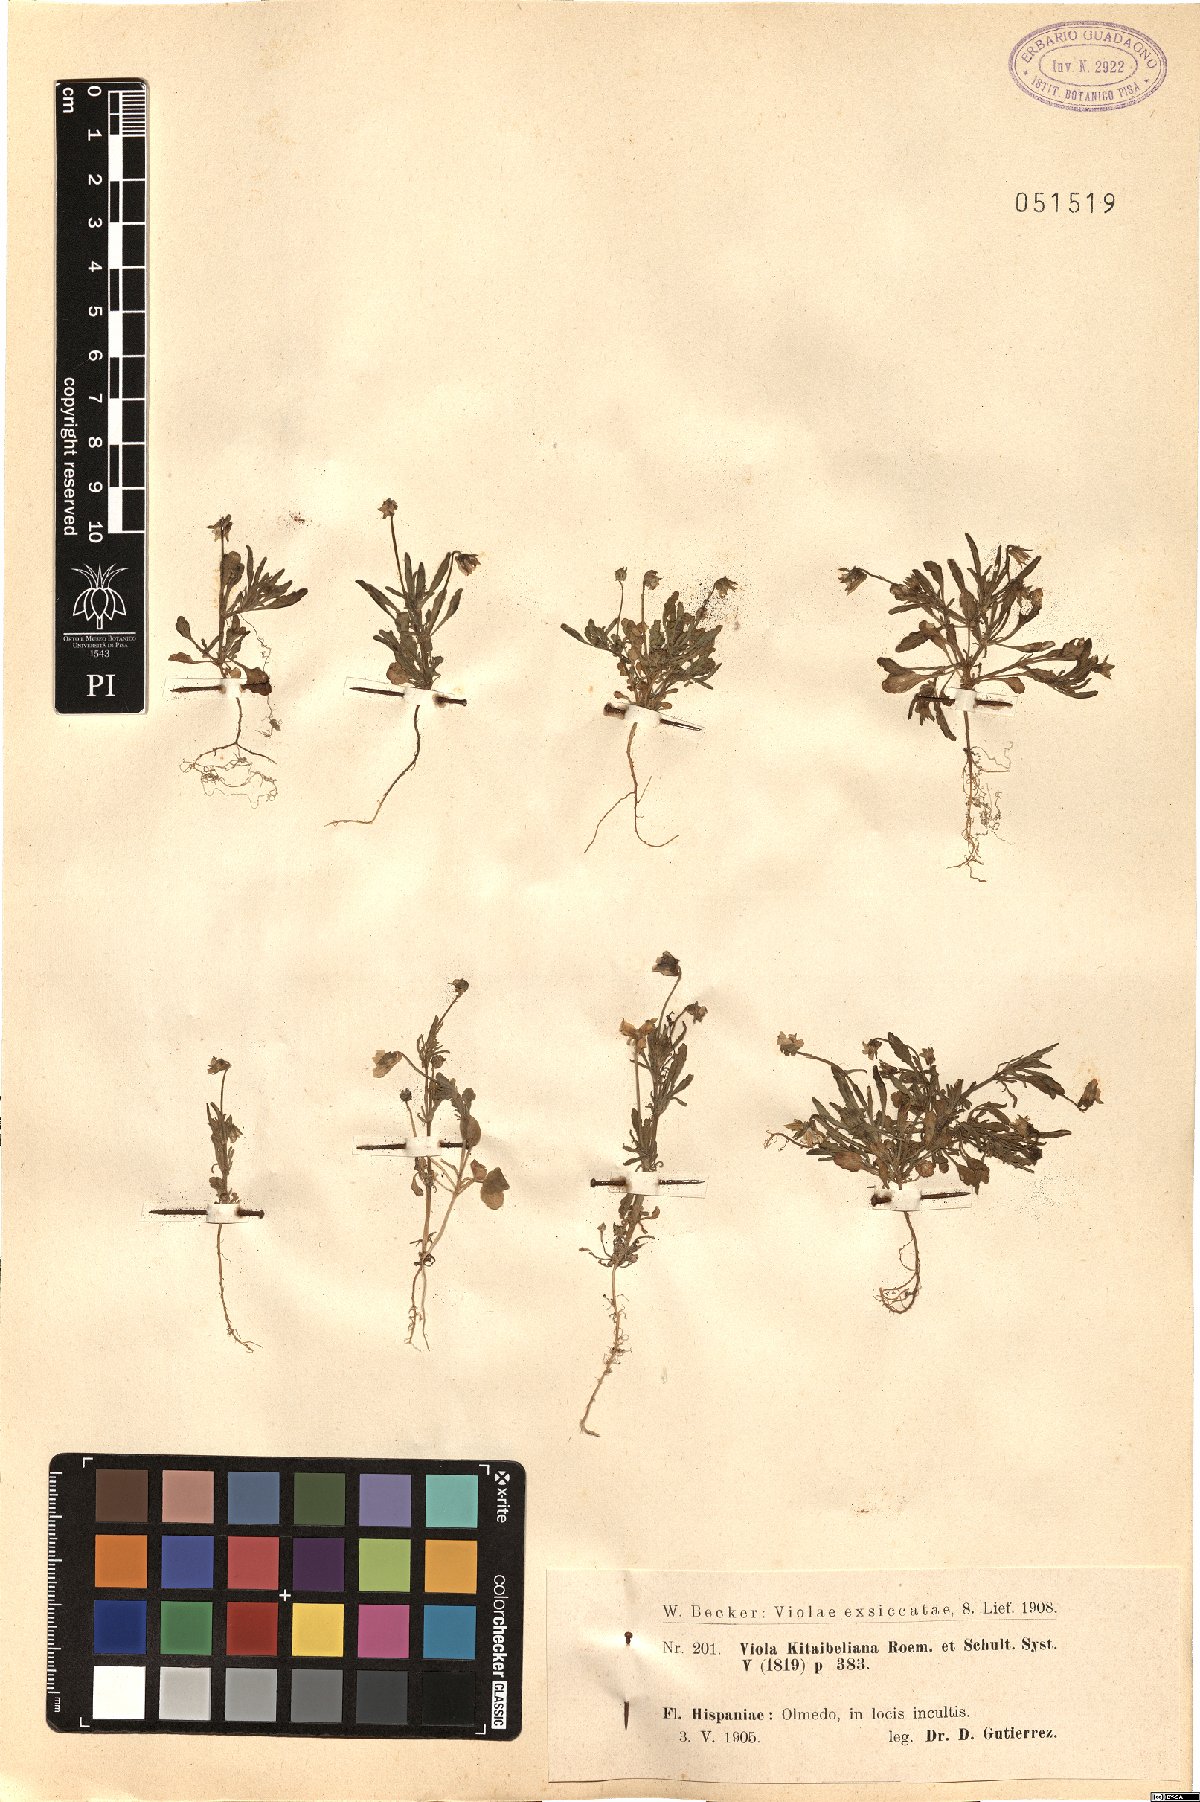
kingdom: Plantae
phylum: Tracheophyta
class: Magnoliopsida
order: Malpighiales
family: Violaceae
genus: Viola
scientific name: Viola kitaibeliana
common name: Dwarf pansy
